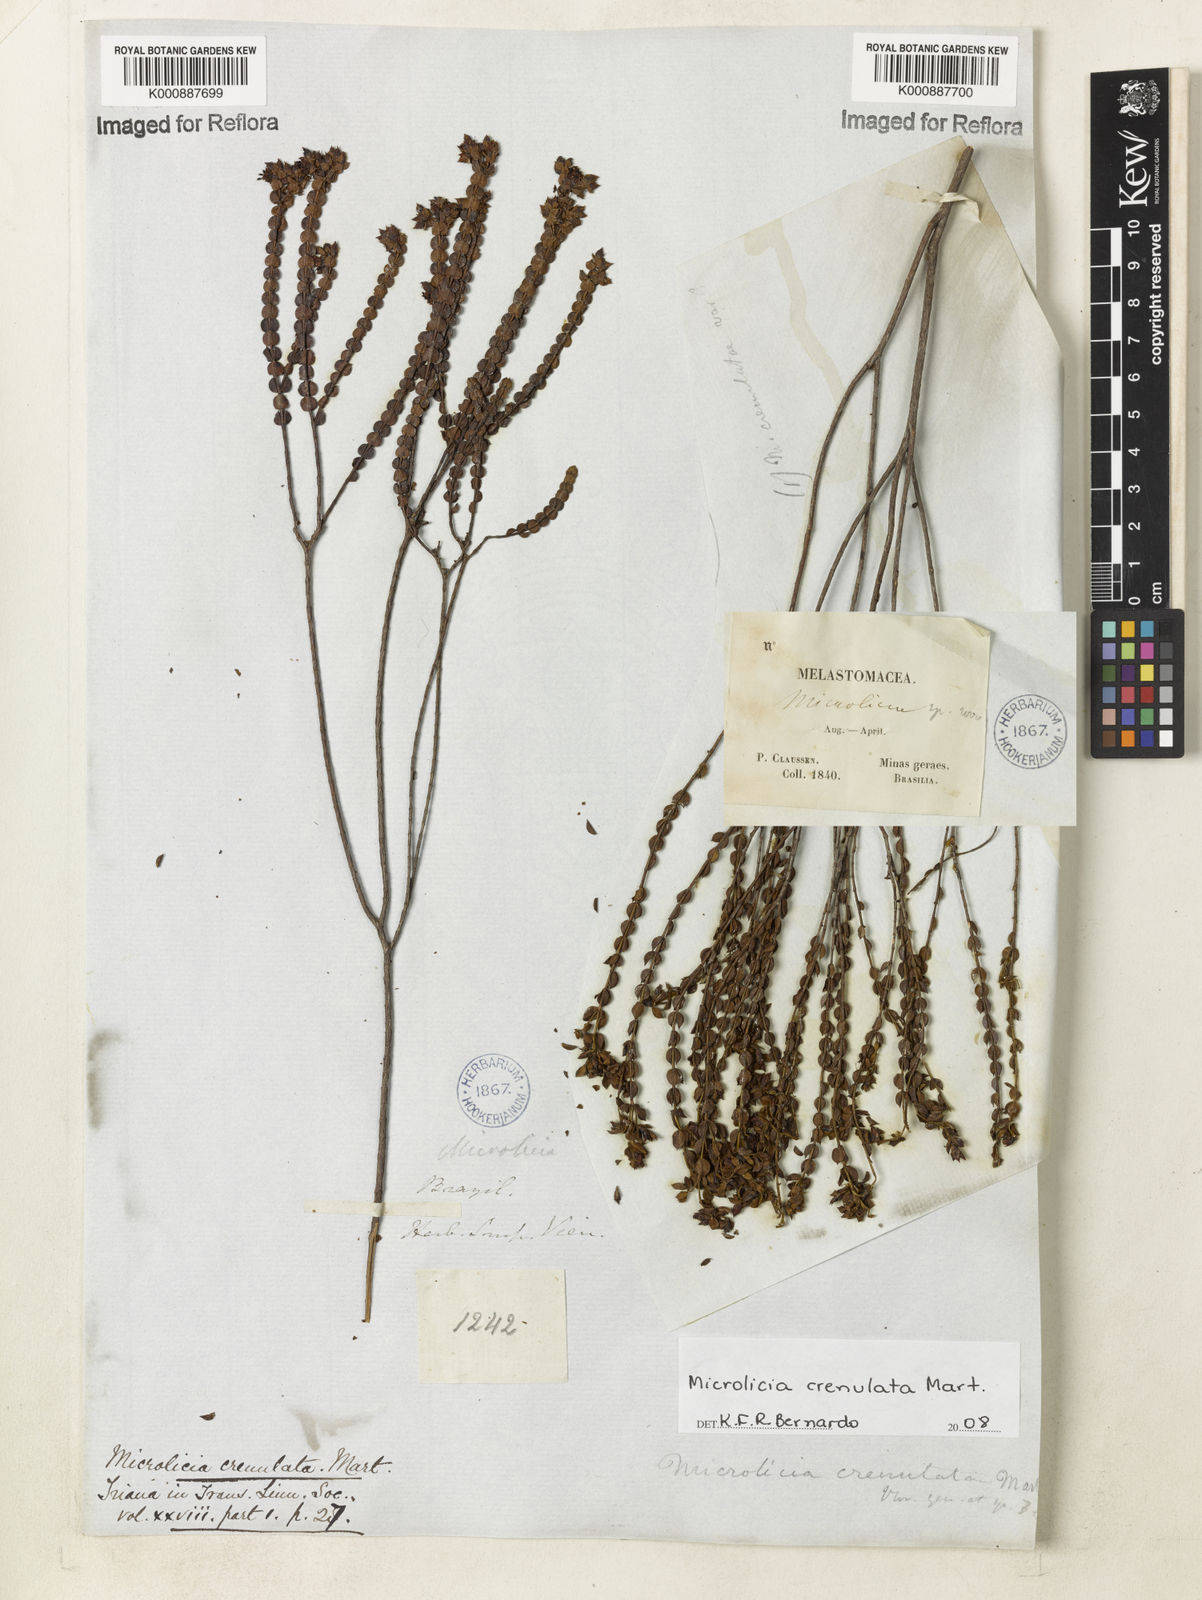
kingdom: Plantae
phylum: Tracheophyta
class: Magnoliopsida
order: Myrtales
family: Melastomataceae
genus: Microlicia
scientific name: Microlicia crenulata
